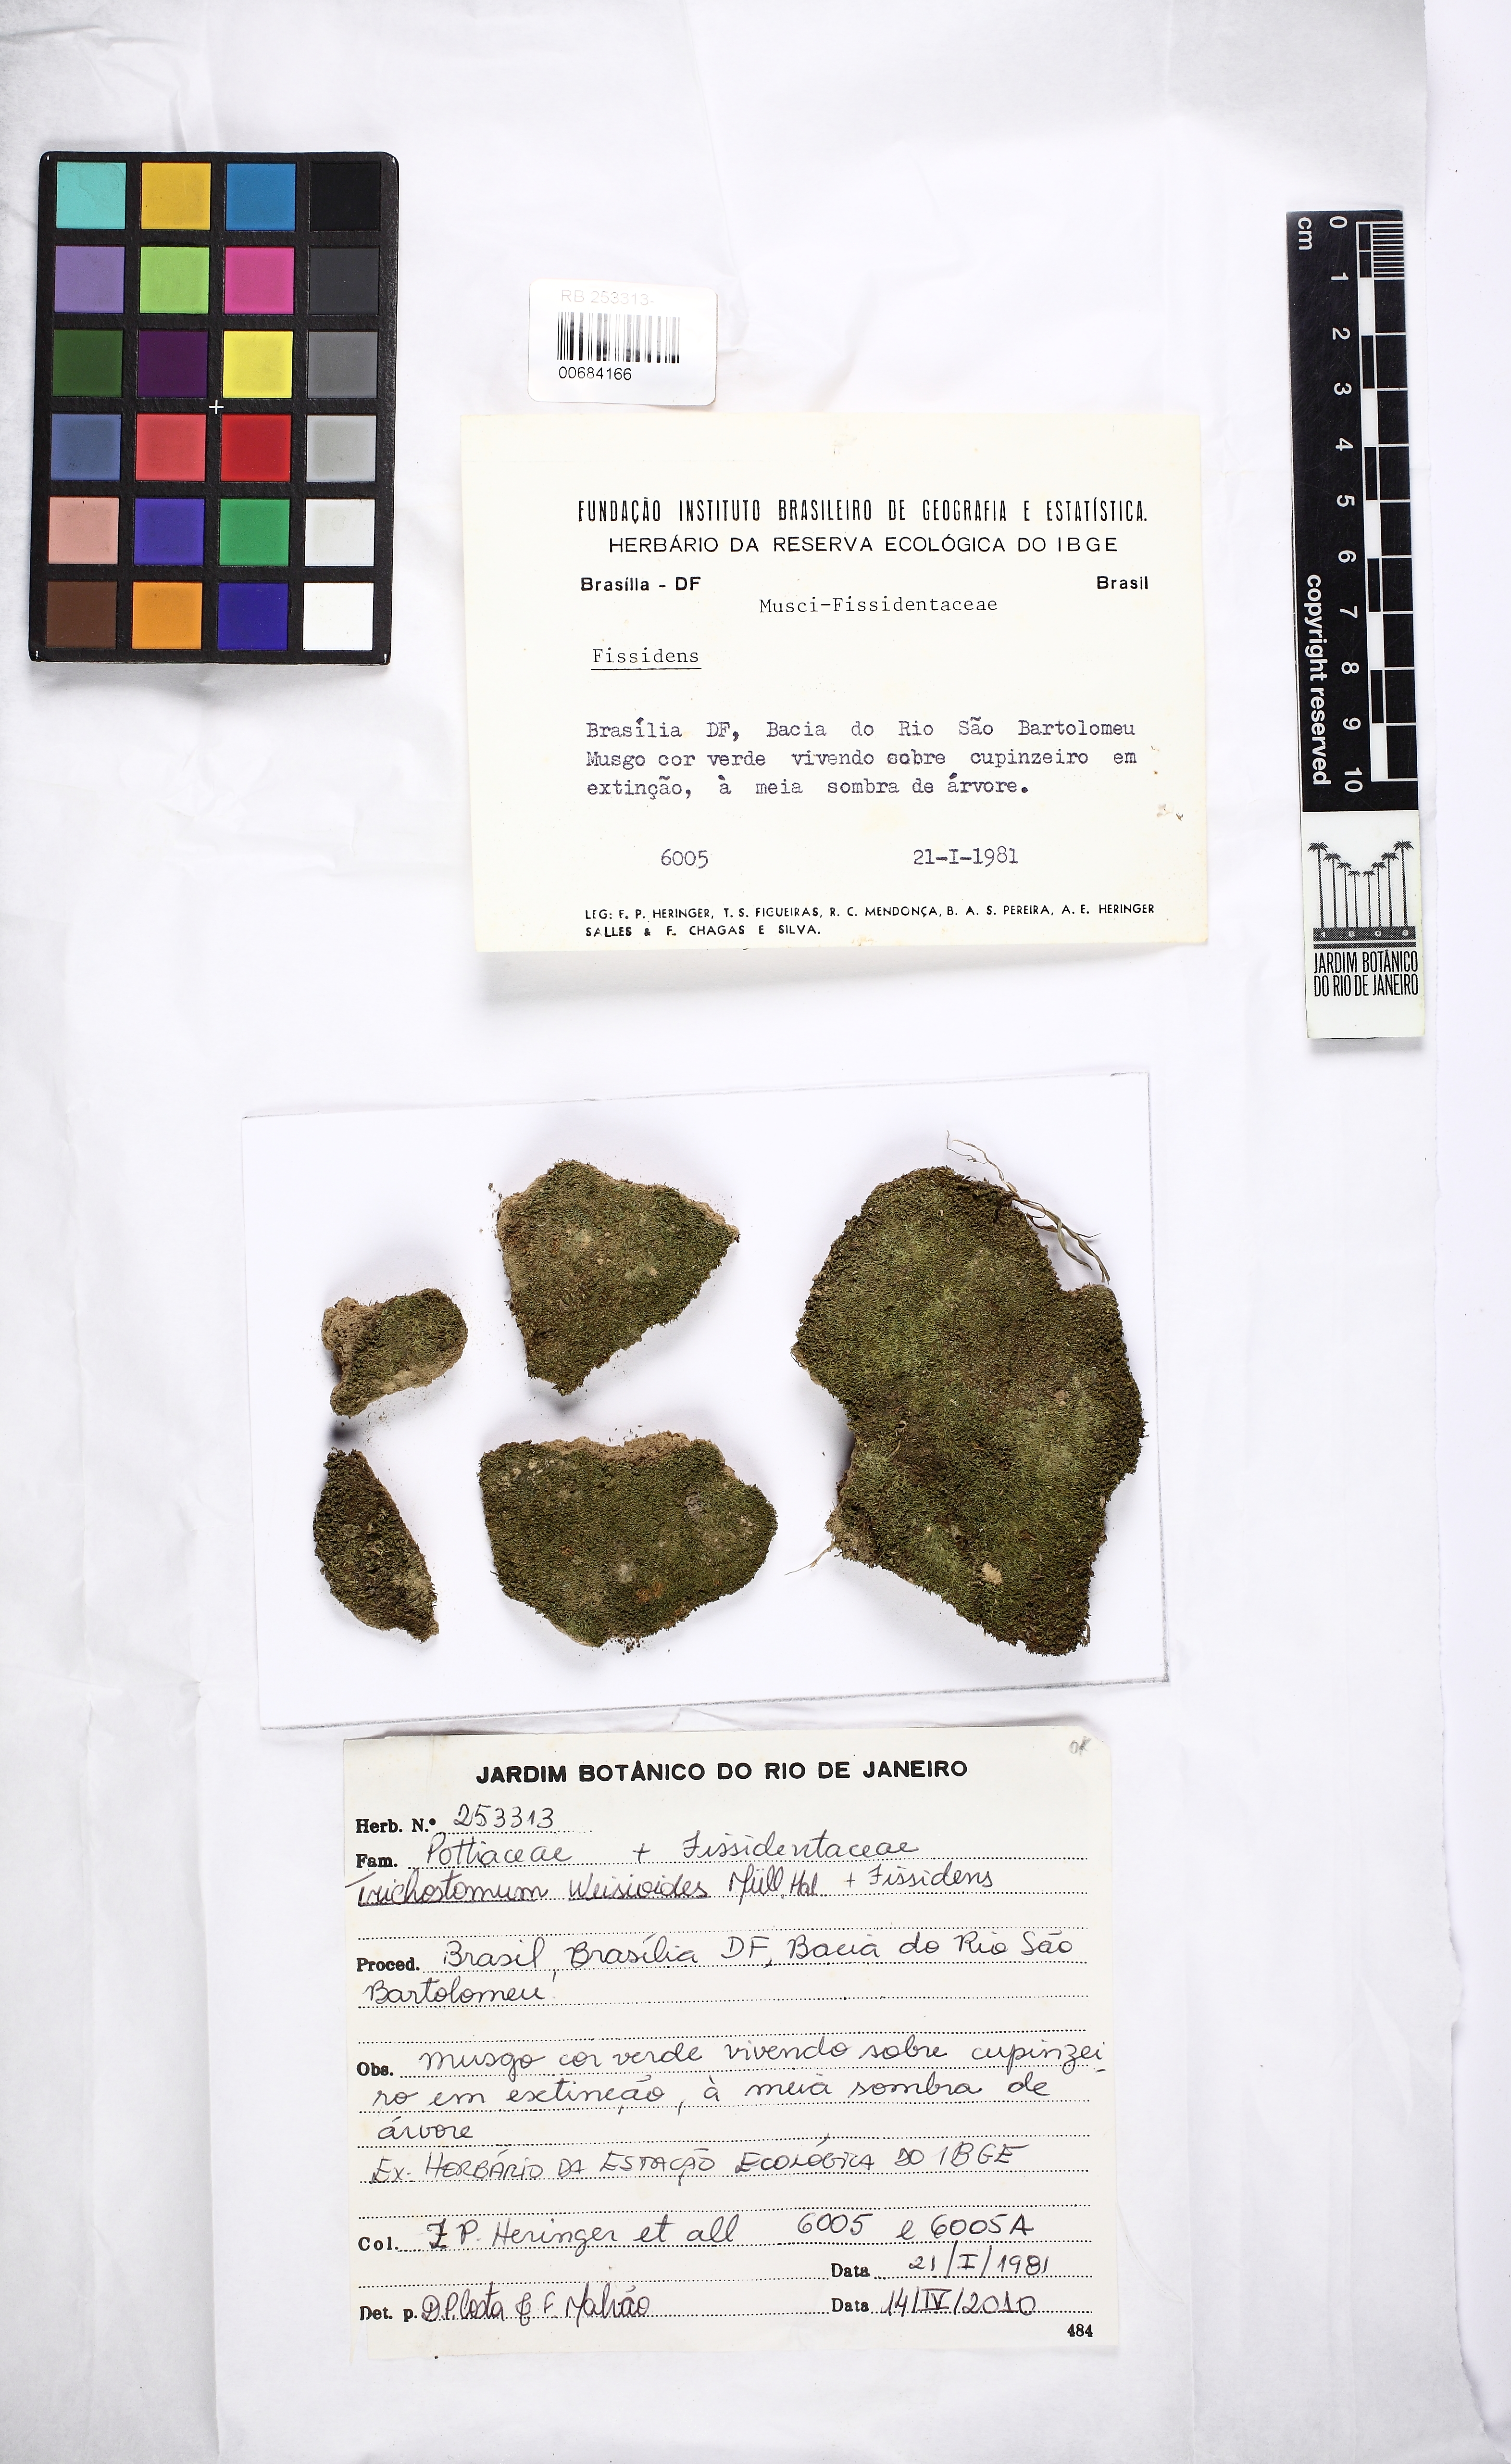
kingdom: Plantae
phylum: Bryophyta
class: Bryopsida
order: Pottiales
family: Pottiaceae
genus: Chionoloma
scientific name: Chionoloma orthodontum
